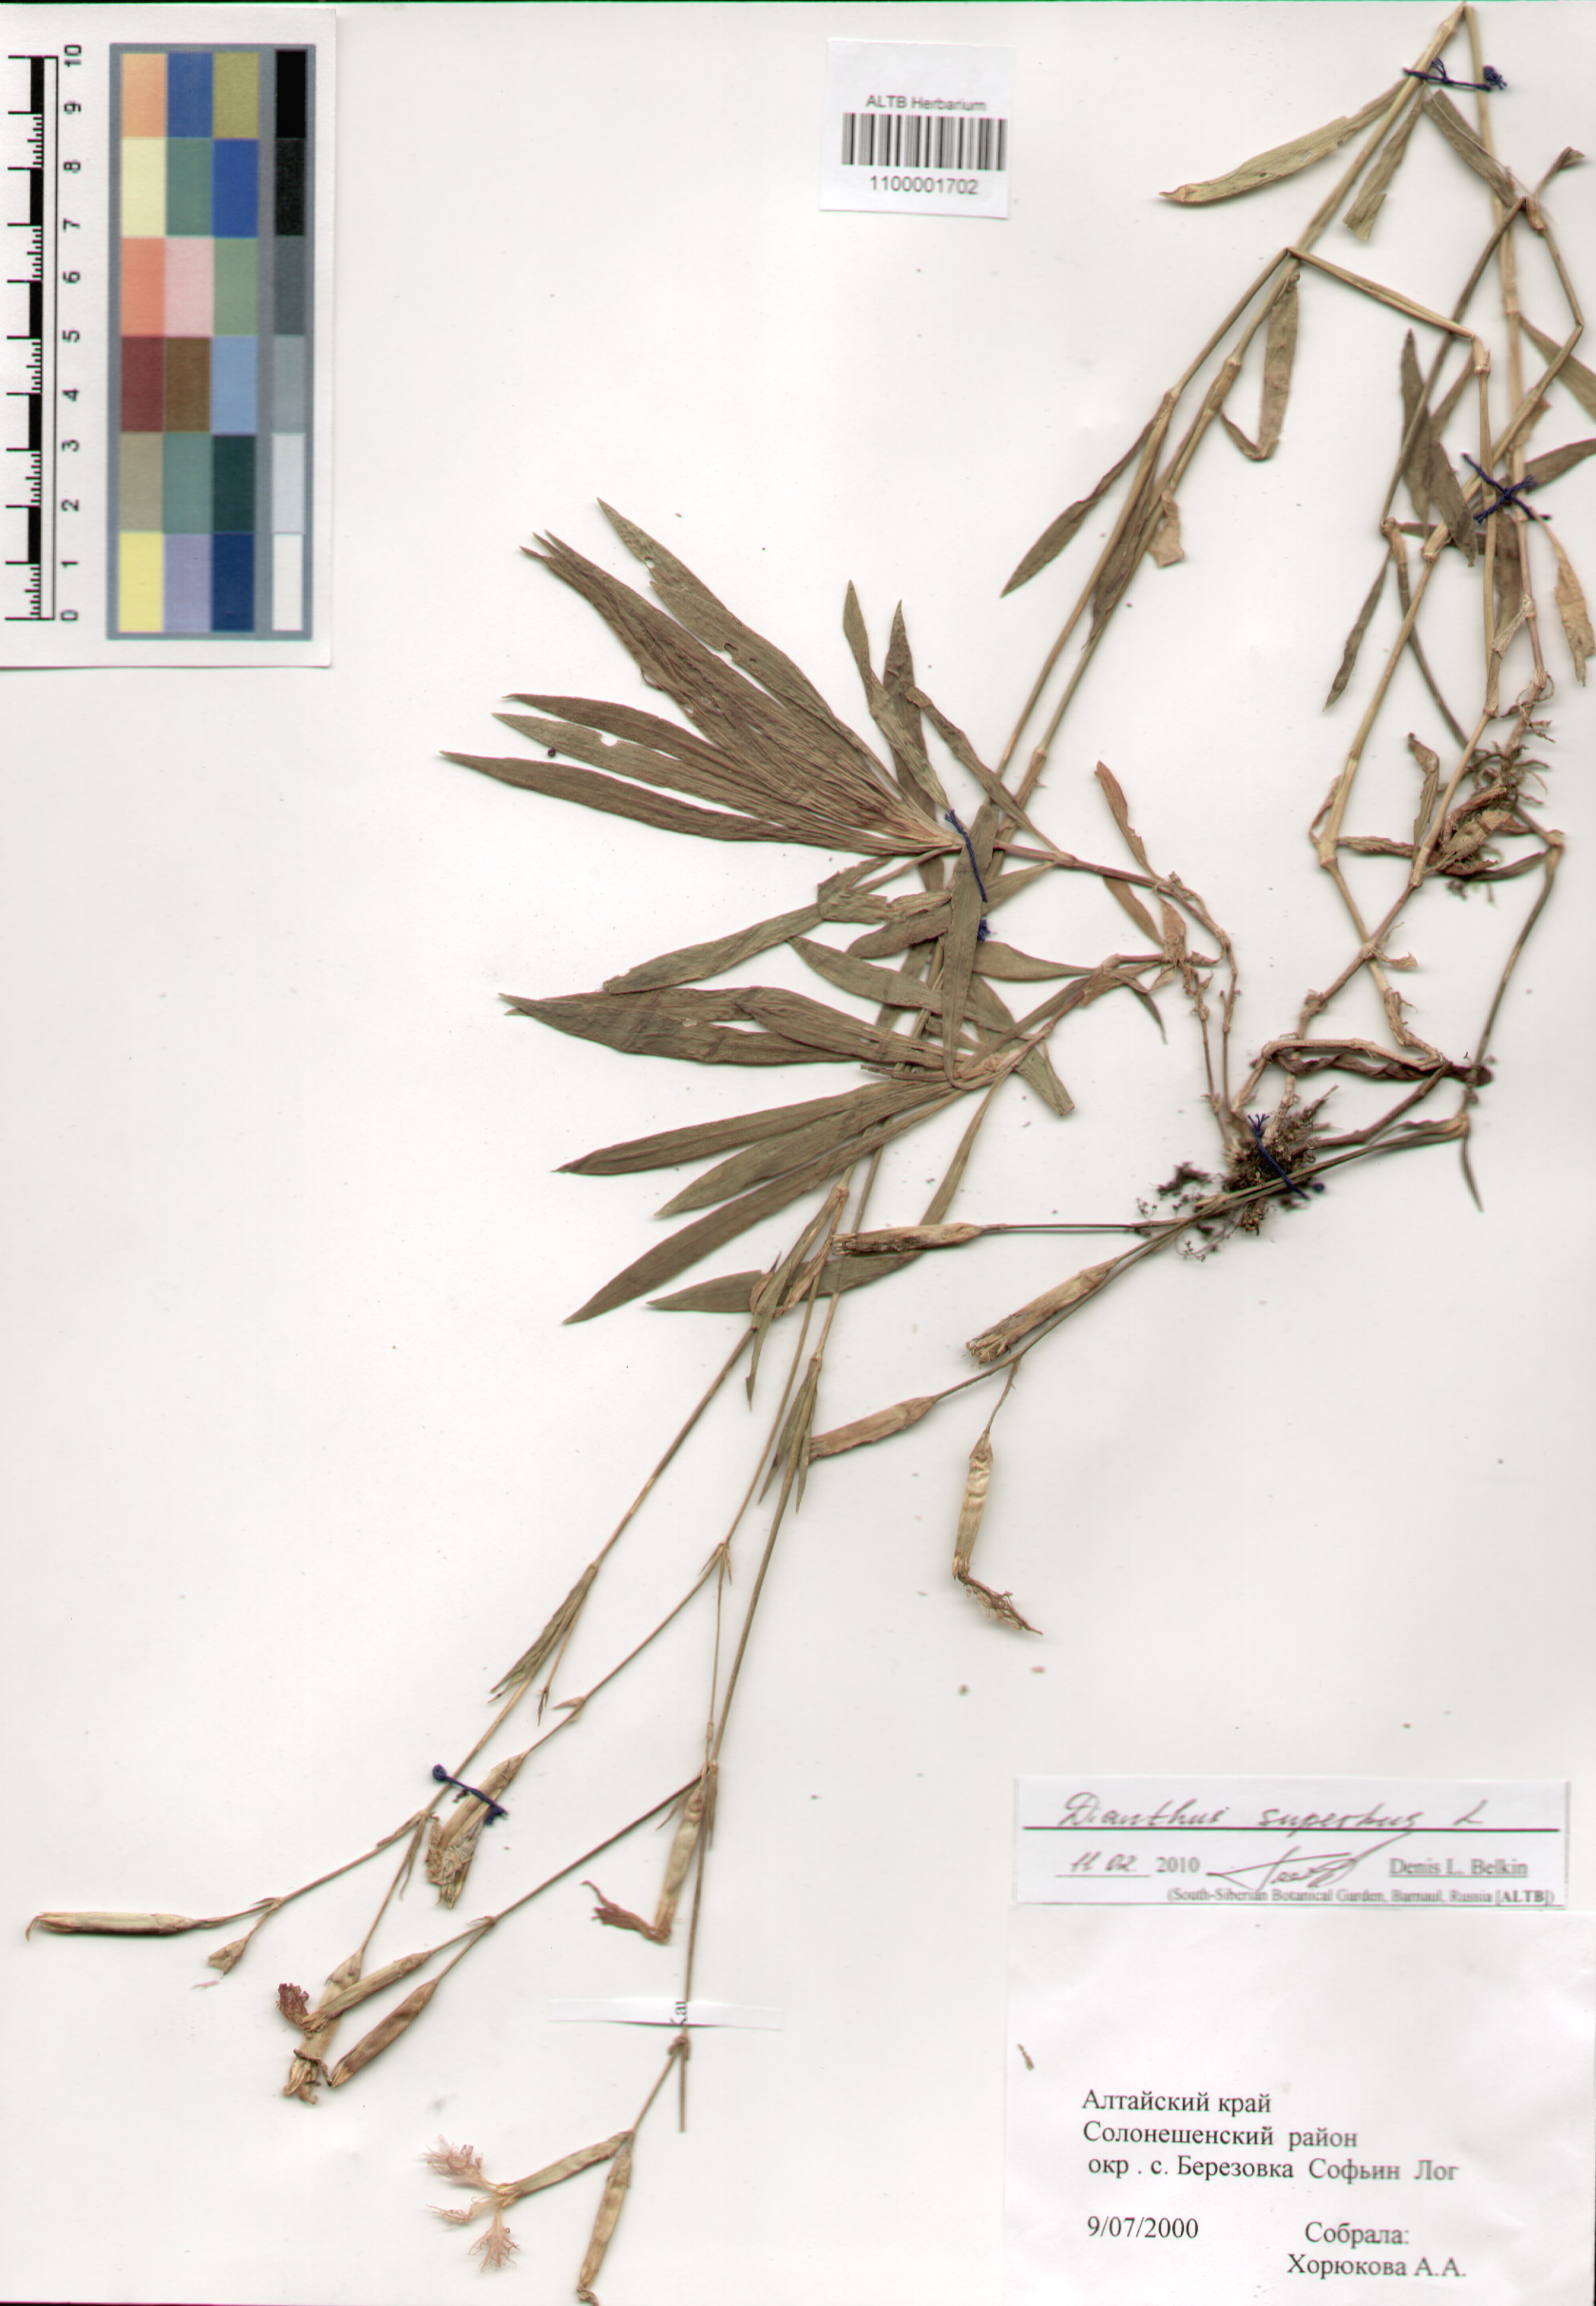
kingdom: Plantae
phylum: Tracheophyta
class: Magnoliopsida
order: Caryophyllales
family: Caryophyllaceae
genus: Dianthus
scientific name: Dianthus superbus
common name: Fringed pink
